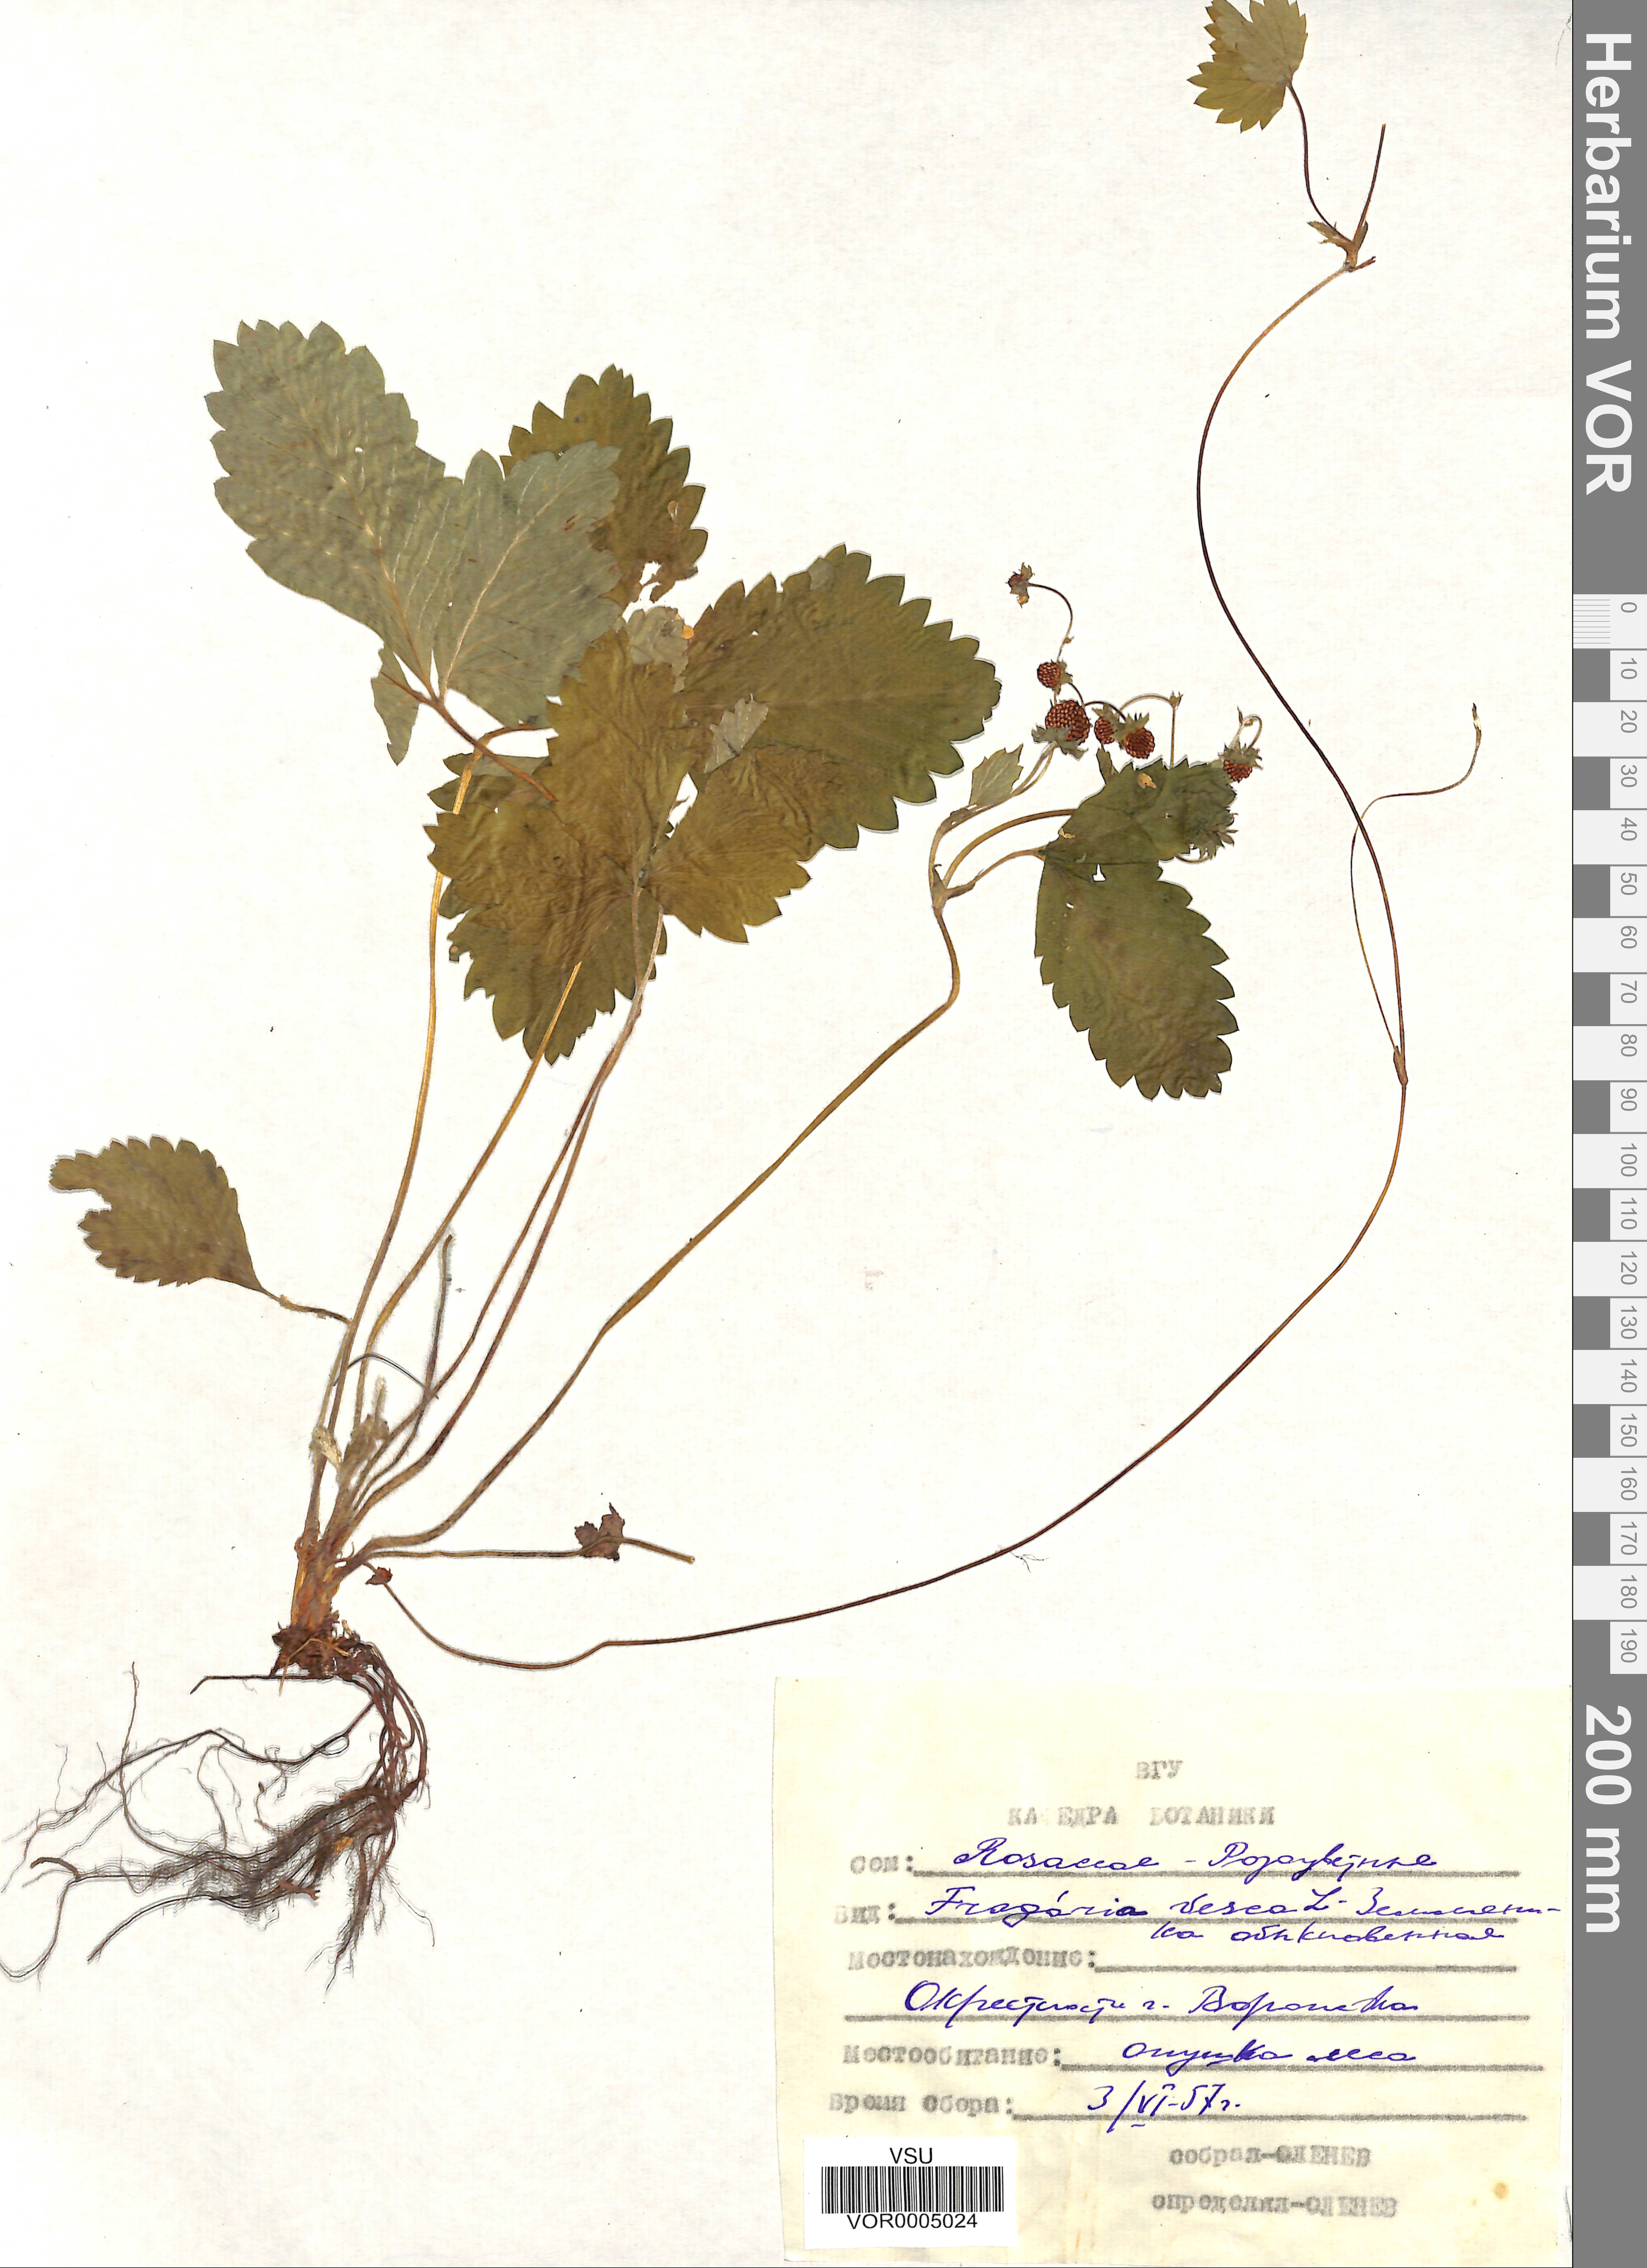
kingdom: Plantae
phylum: Tracheophyta
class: Magnoliopsida
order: Rosales
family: Rosaceae
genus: Fragaria
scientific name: Fragaria vesca
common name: Wild strawberry
